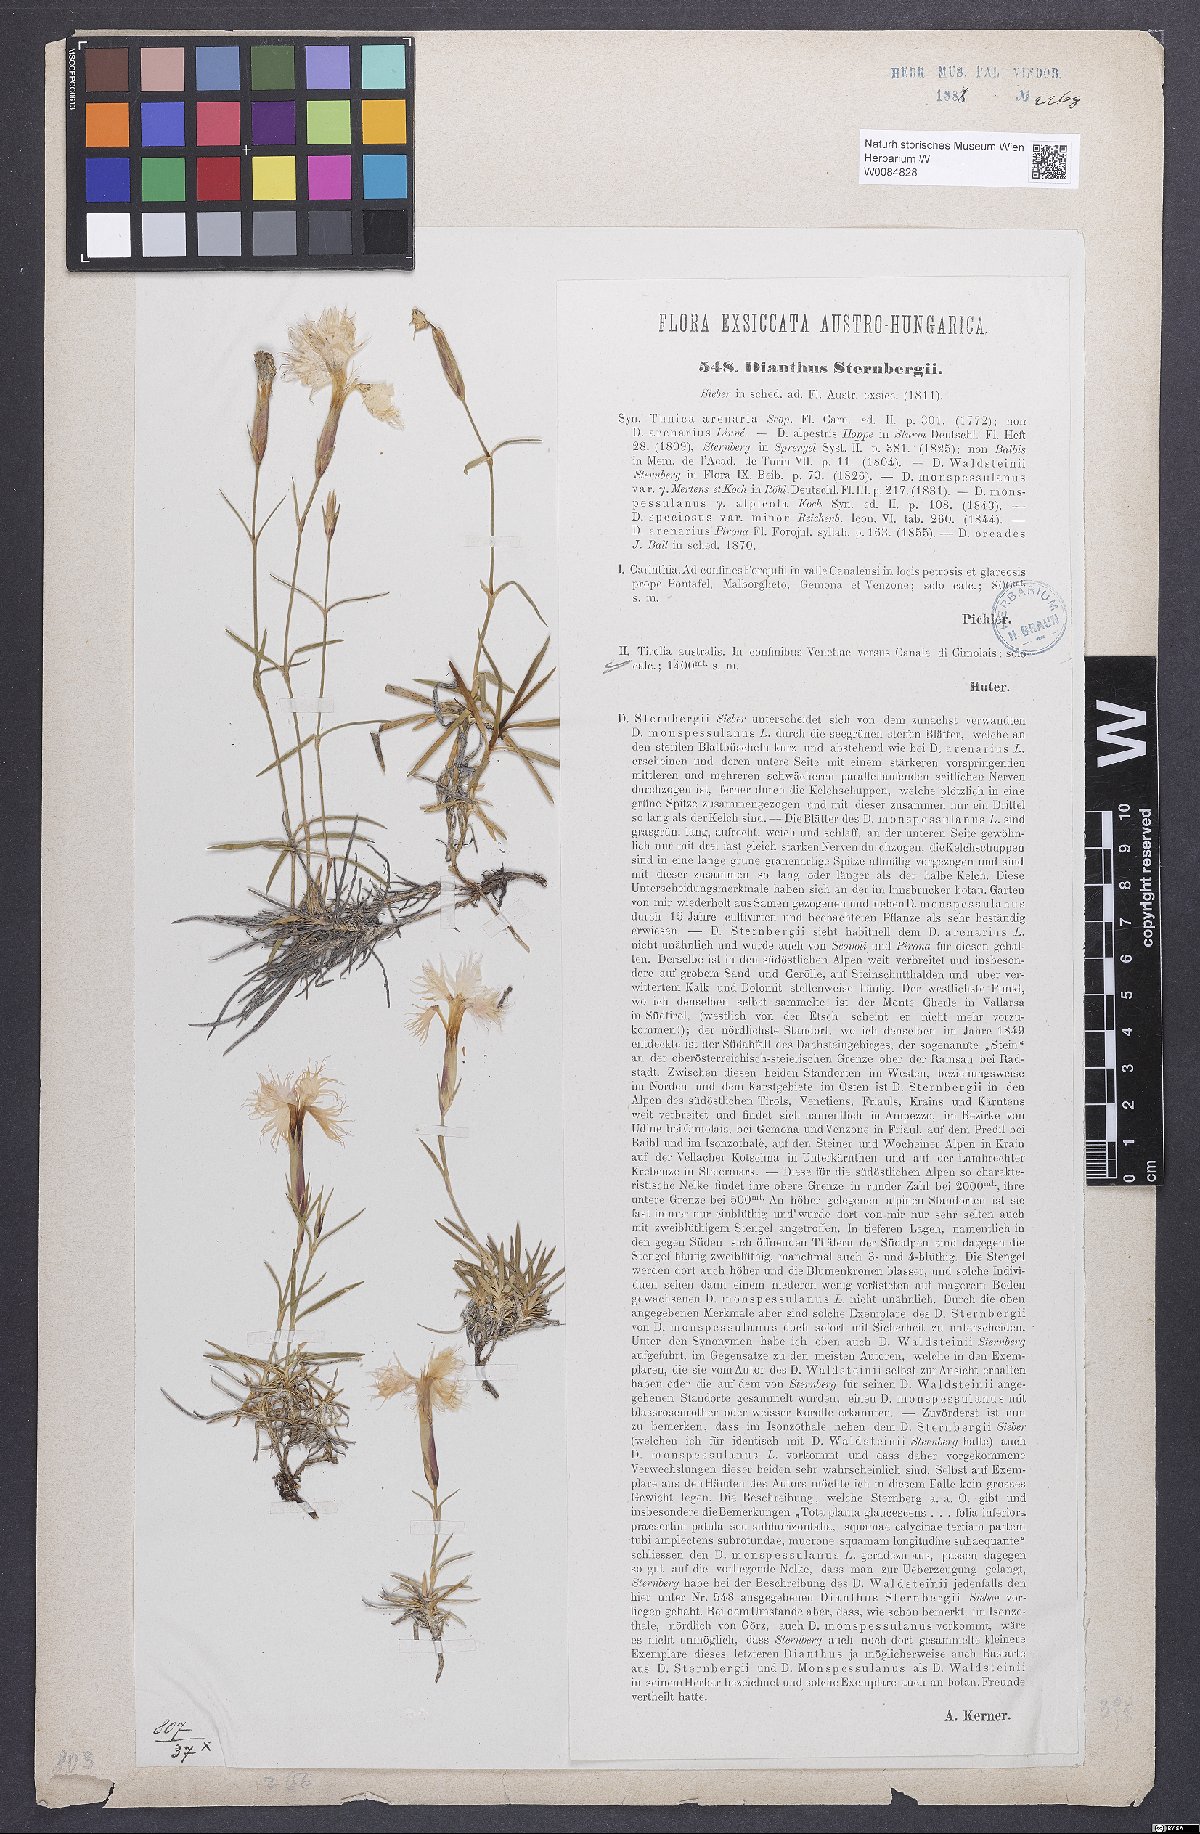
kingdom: Plantae
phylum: Tracheophyta
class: Magnoliopsida
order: Caryophyllales
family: Caryophyllaceae
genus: Dianthus
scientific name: Dianthus monspessulanus
